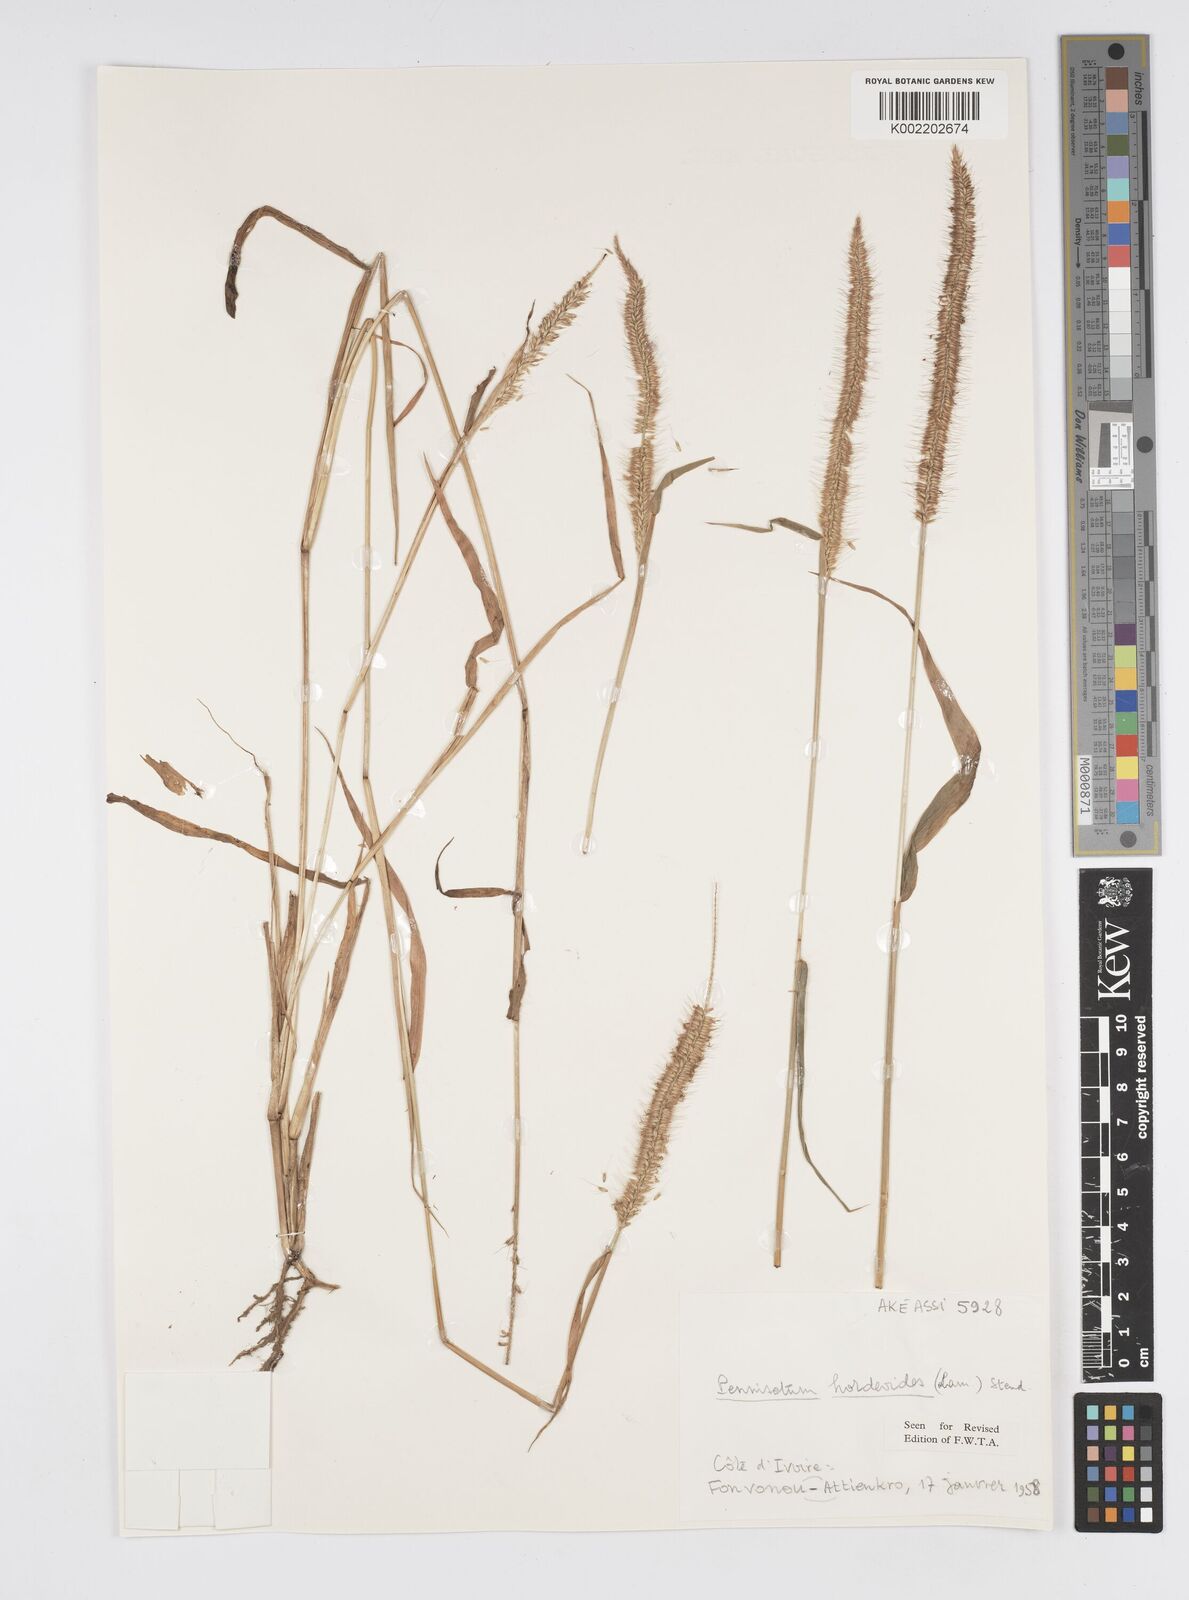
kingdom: Plantae
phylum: Tracheophyta
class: Liliopsida
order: Poales
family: Poaceae
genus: Cenchrus
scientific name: Cenchrus hordeoides
